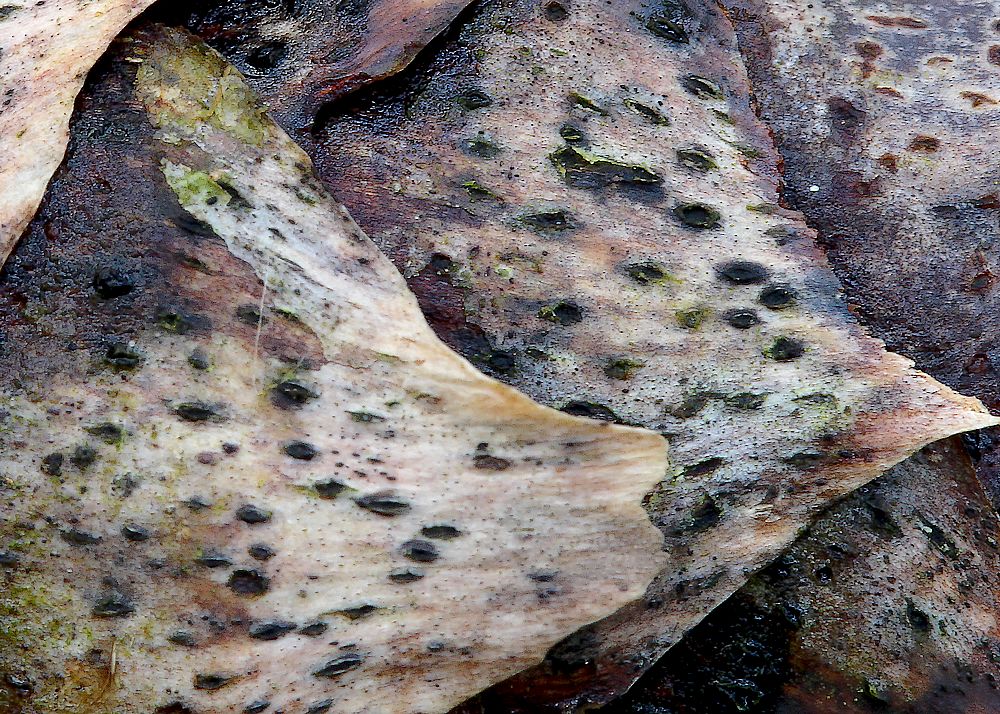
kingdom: Fungi
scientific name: Fungi
